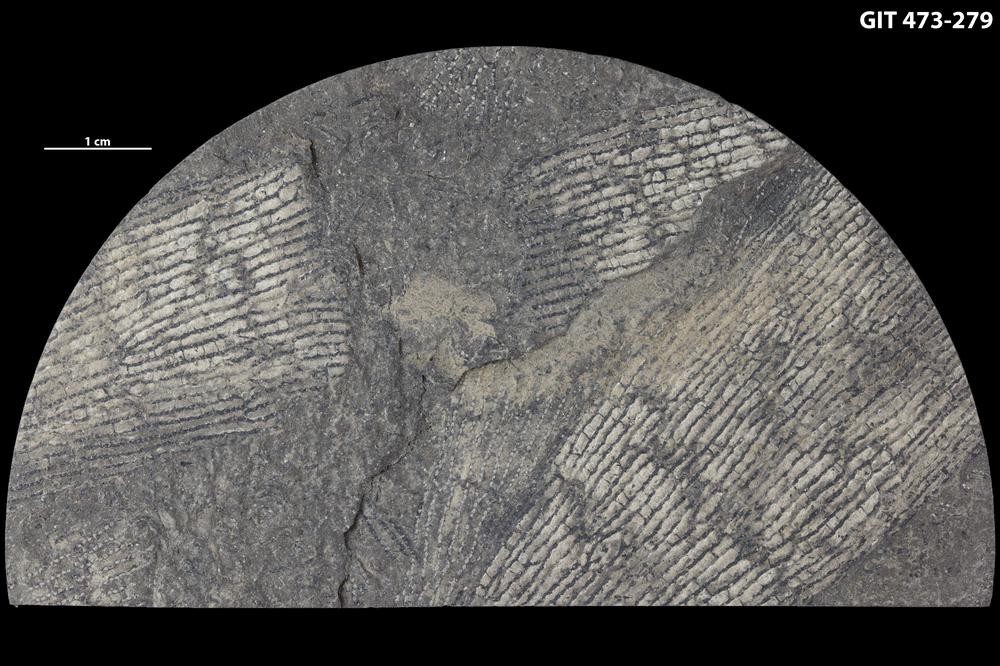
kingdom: Animalia
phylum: Hemichordata
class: Pterobranchia
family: Anisograptidae
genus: Rhabdinopora
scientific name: Rhabdinopora
